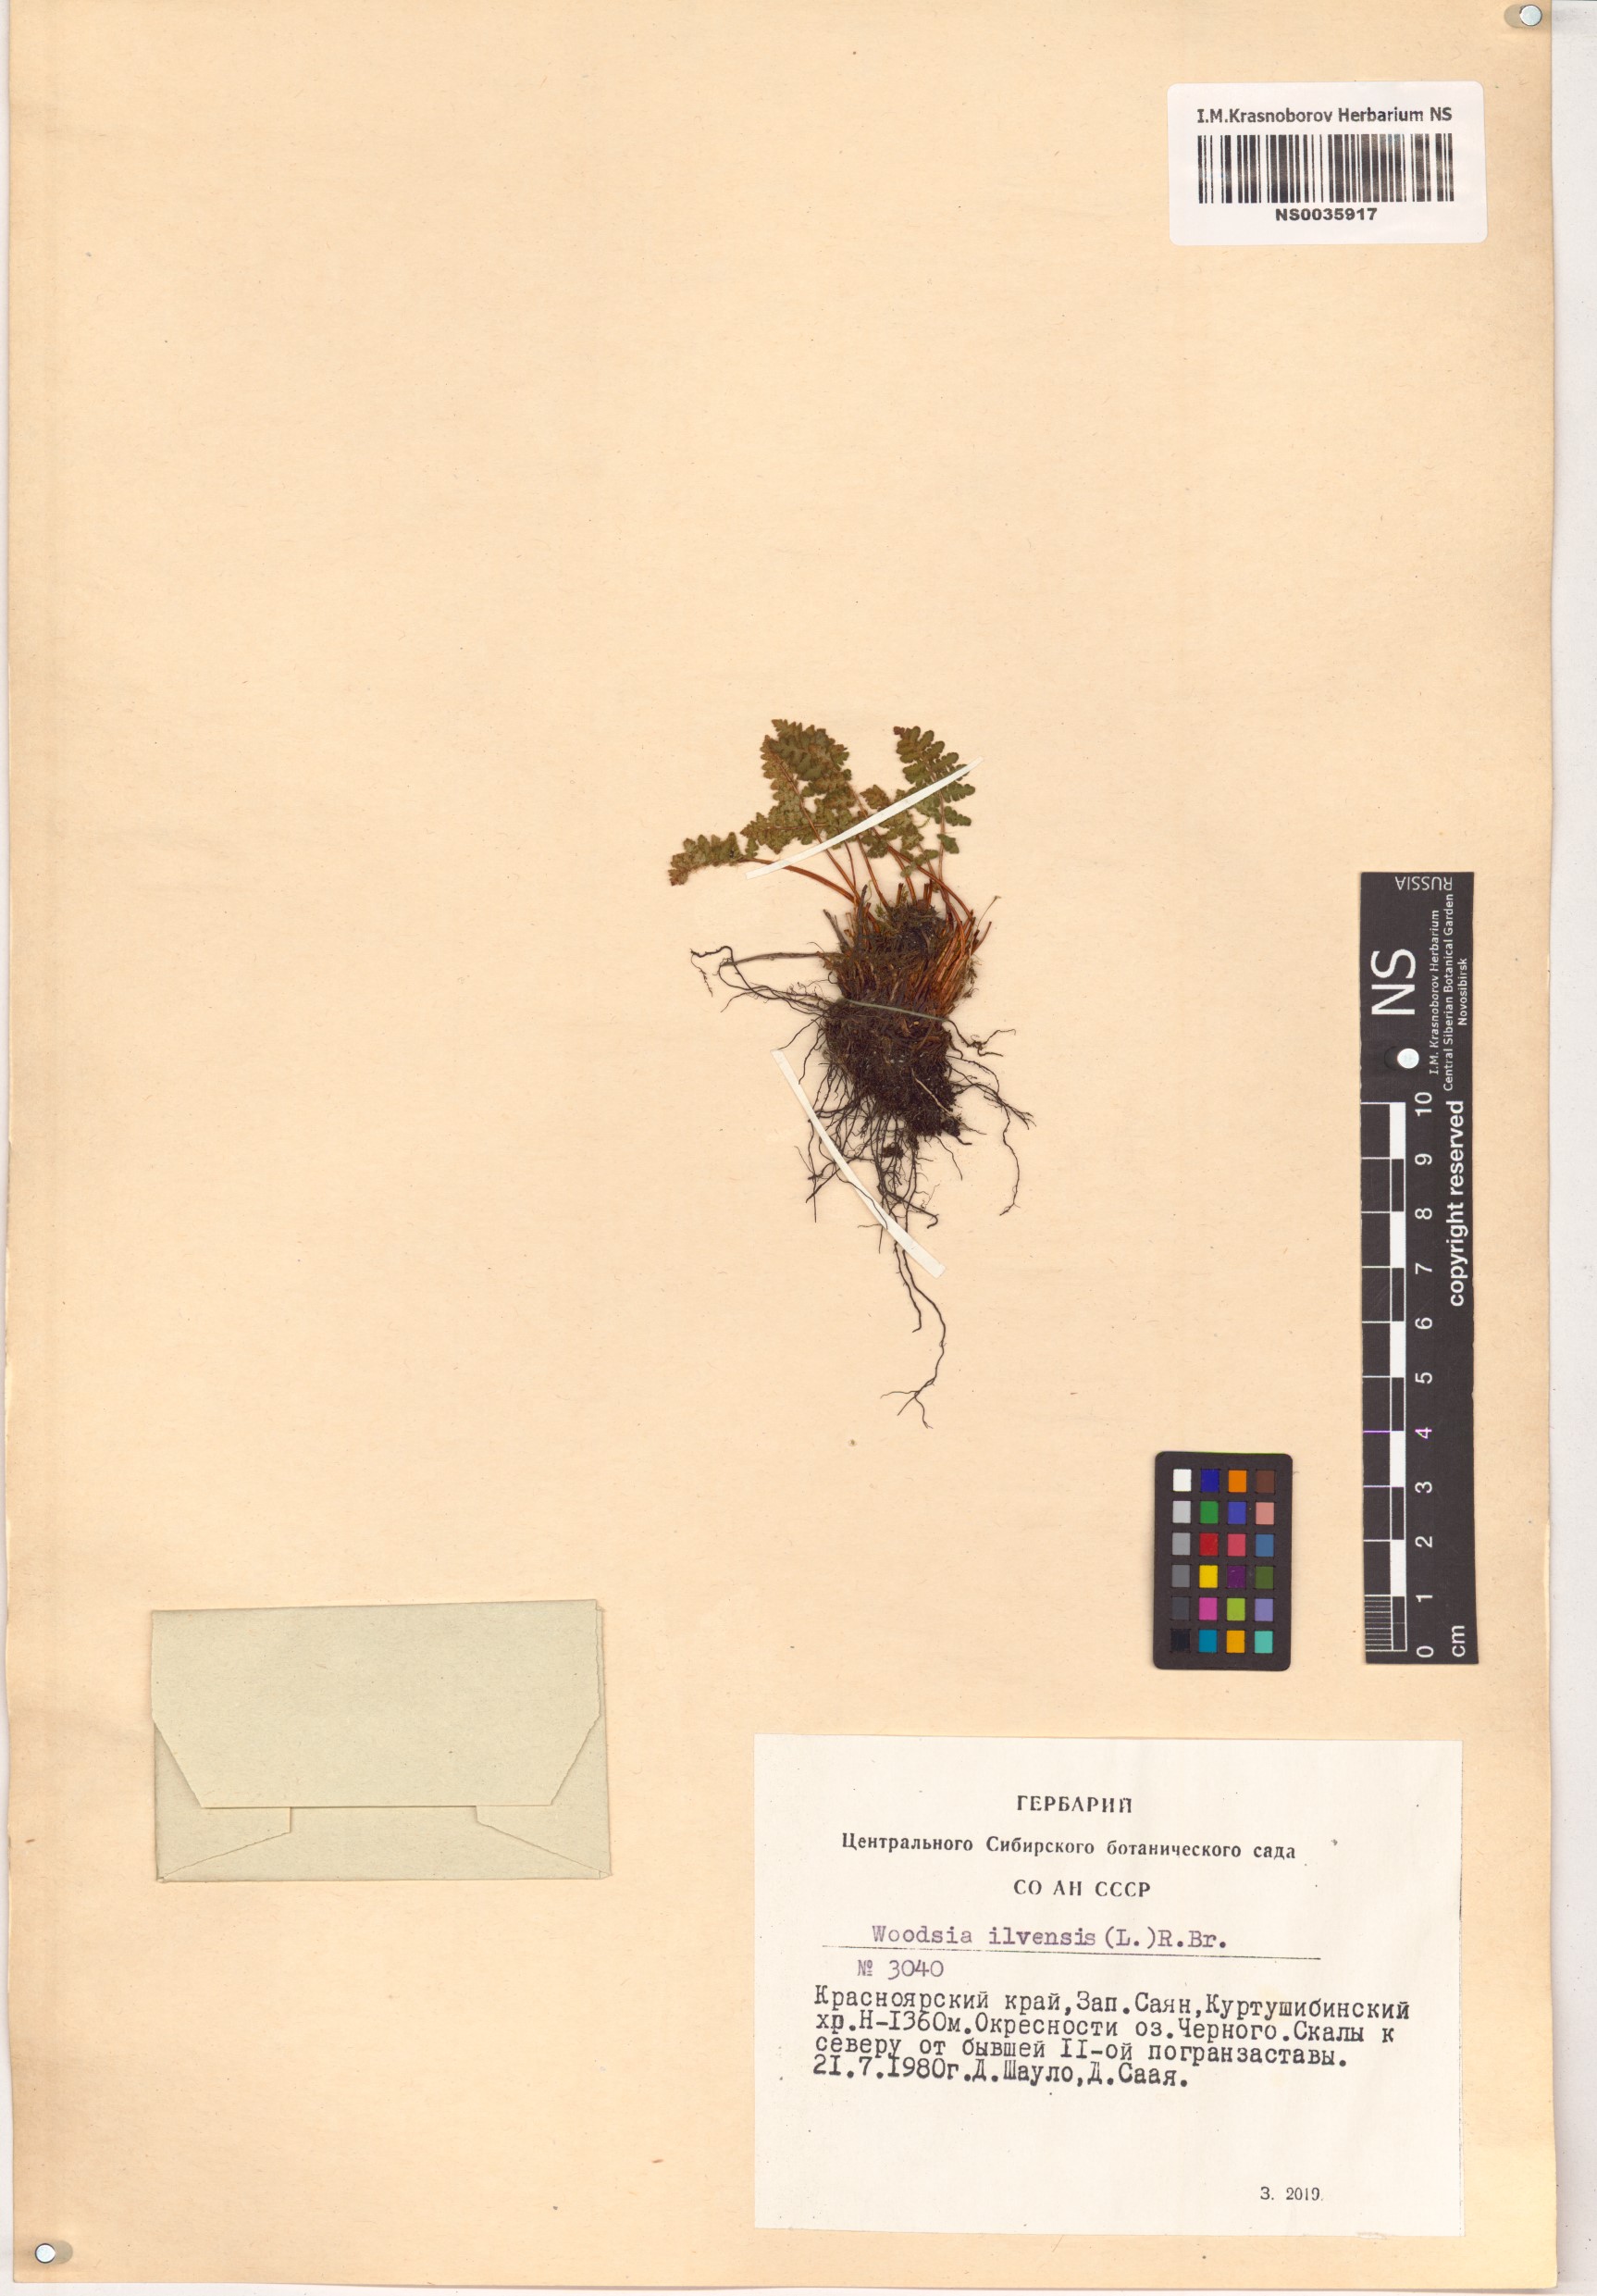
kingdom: Plantae
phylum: Tracheophyta
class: Polypodiopsida
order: Polypodiales
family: Woodsiaceae
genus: Woodsia
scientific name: Woodsia ilvensis
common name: Fragrant woodsia
